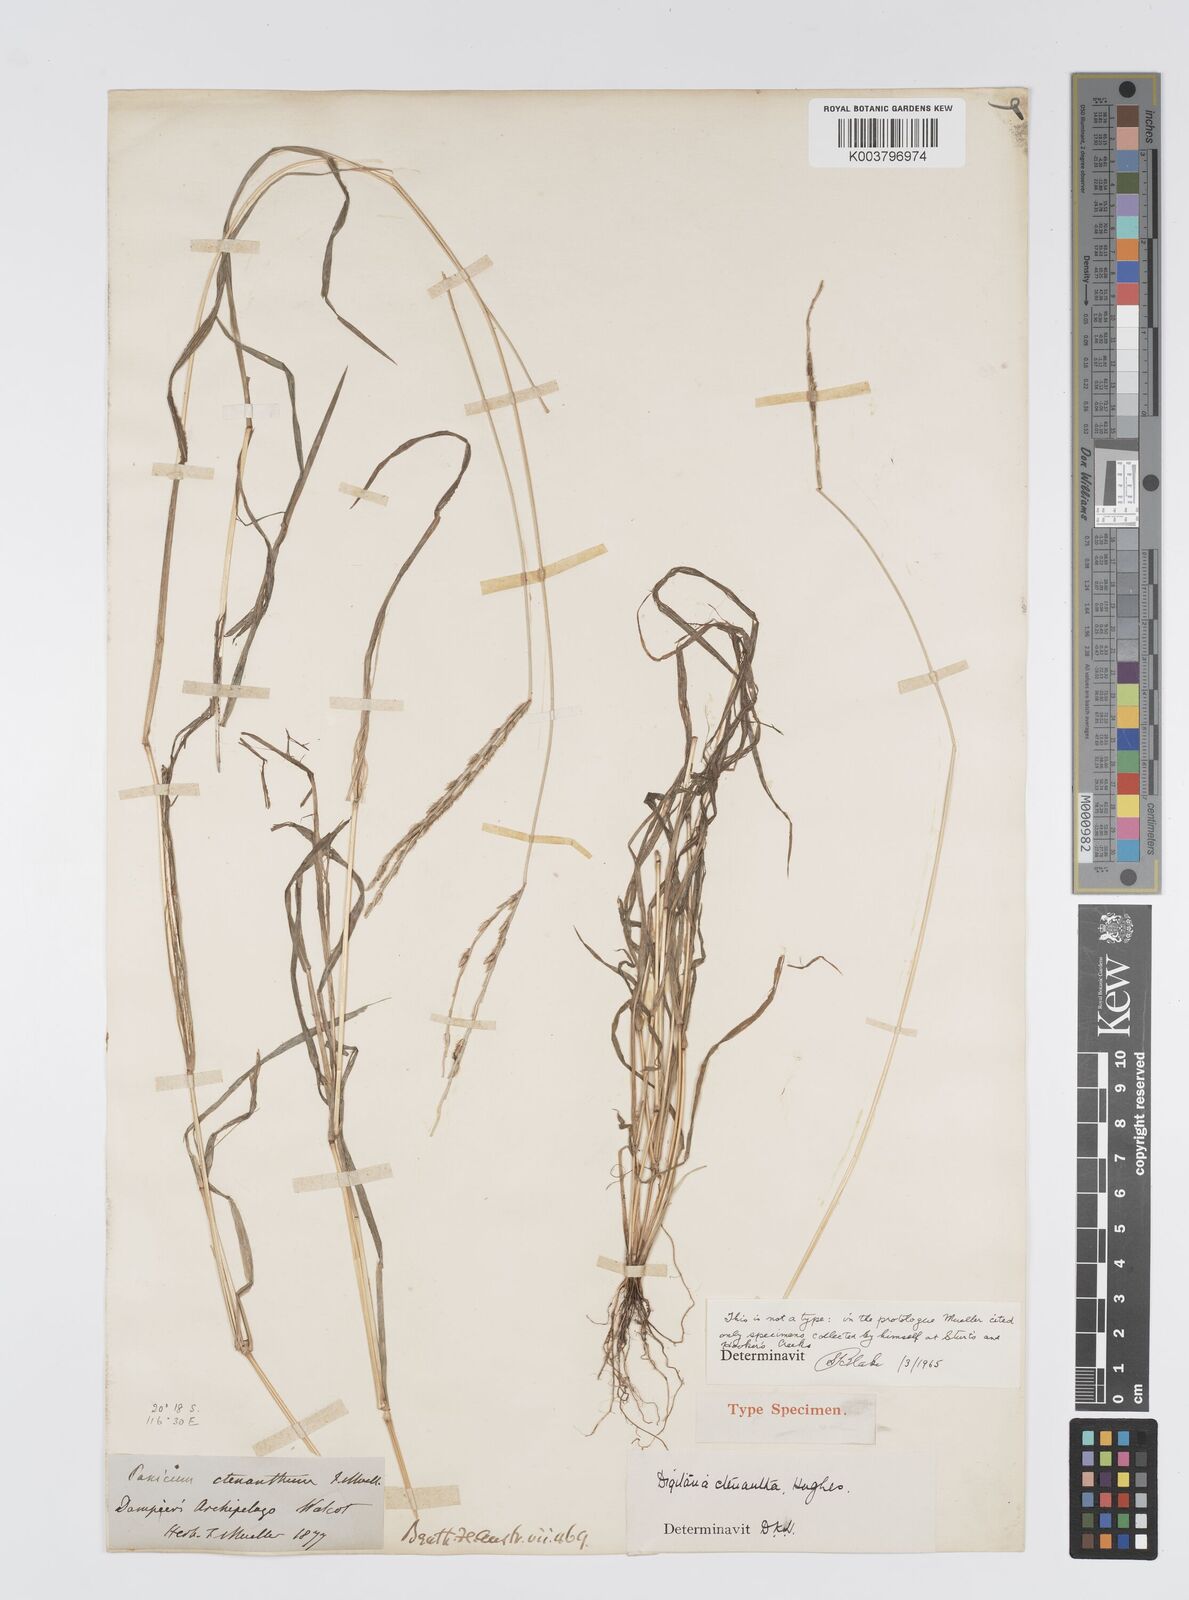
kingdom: Plantae
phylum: Tracheophyta
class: Liliopsida
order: Poales
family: Poaceae
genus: Digitaria
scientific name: Digitaria ctenantha
